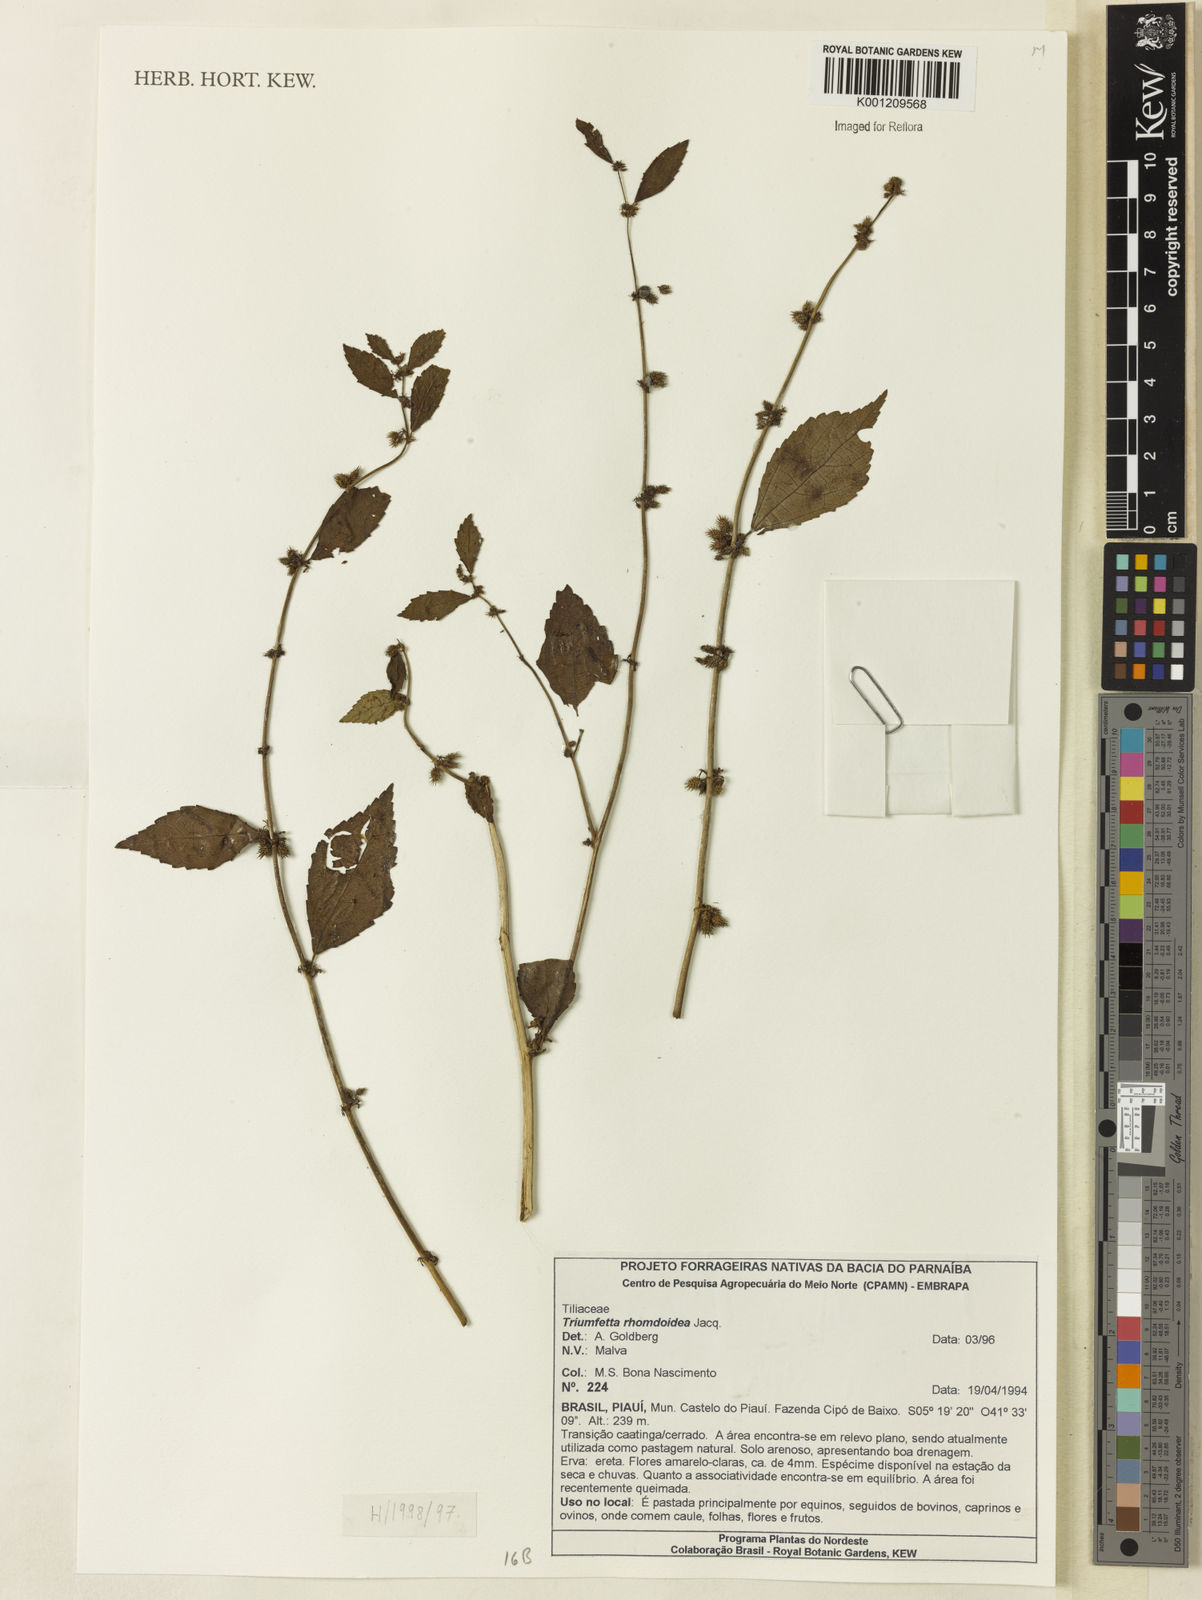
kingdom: Plantae
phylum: Tracheophyta
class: Magnoliopsida
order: Malvales
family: Malvaceae
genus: Triumfetta
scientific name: Triumfetta rhomboidea
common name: Diamond burbark
